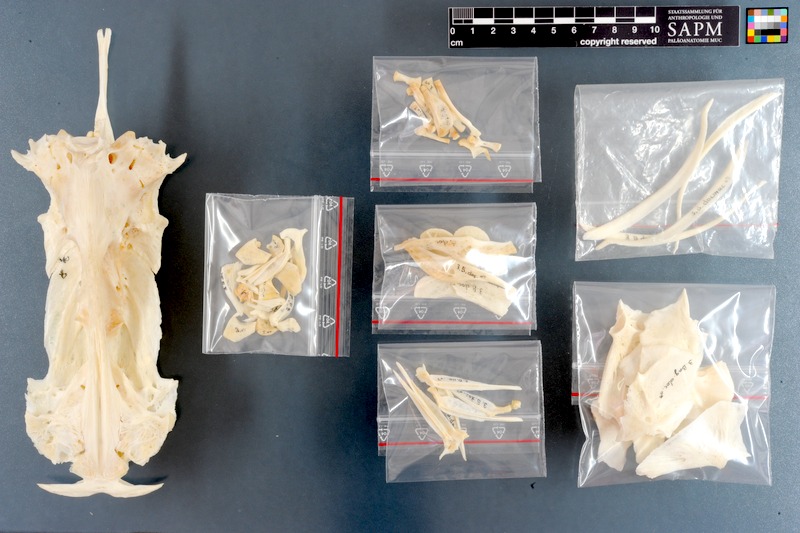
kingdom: Animalia
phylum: Chordata
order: Siluriformes
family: Bagridae
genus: Bagrus
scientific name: Bagrus docmak
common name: Silver catfish
